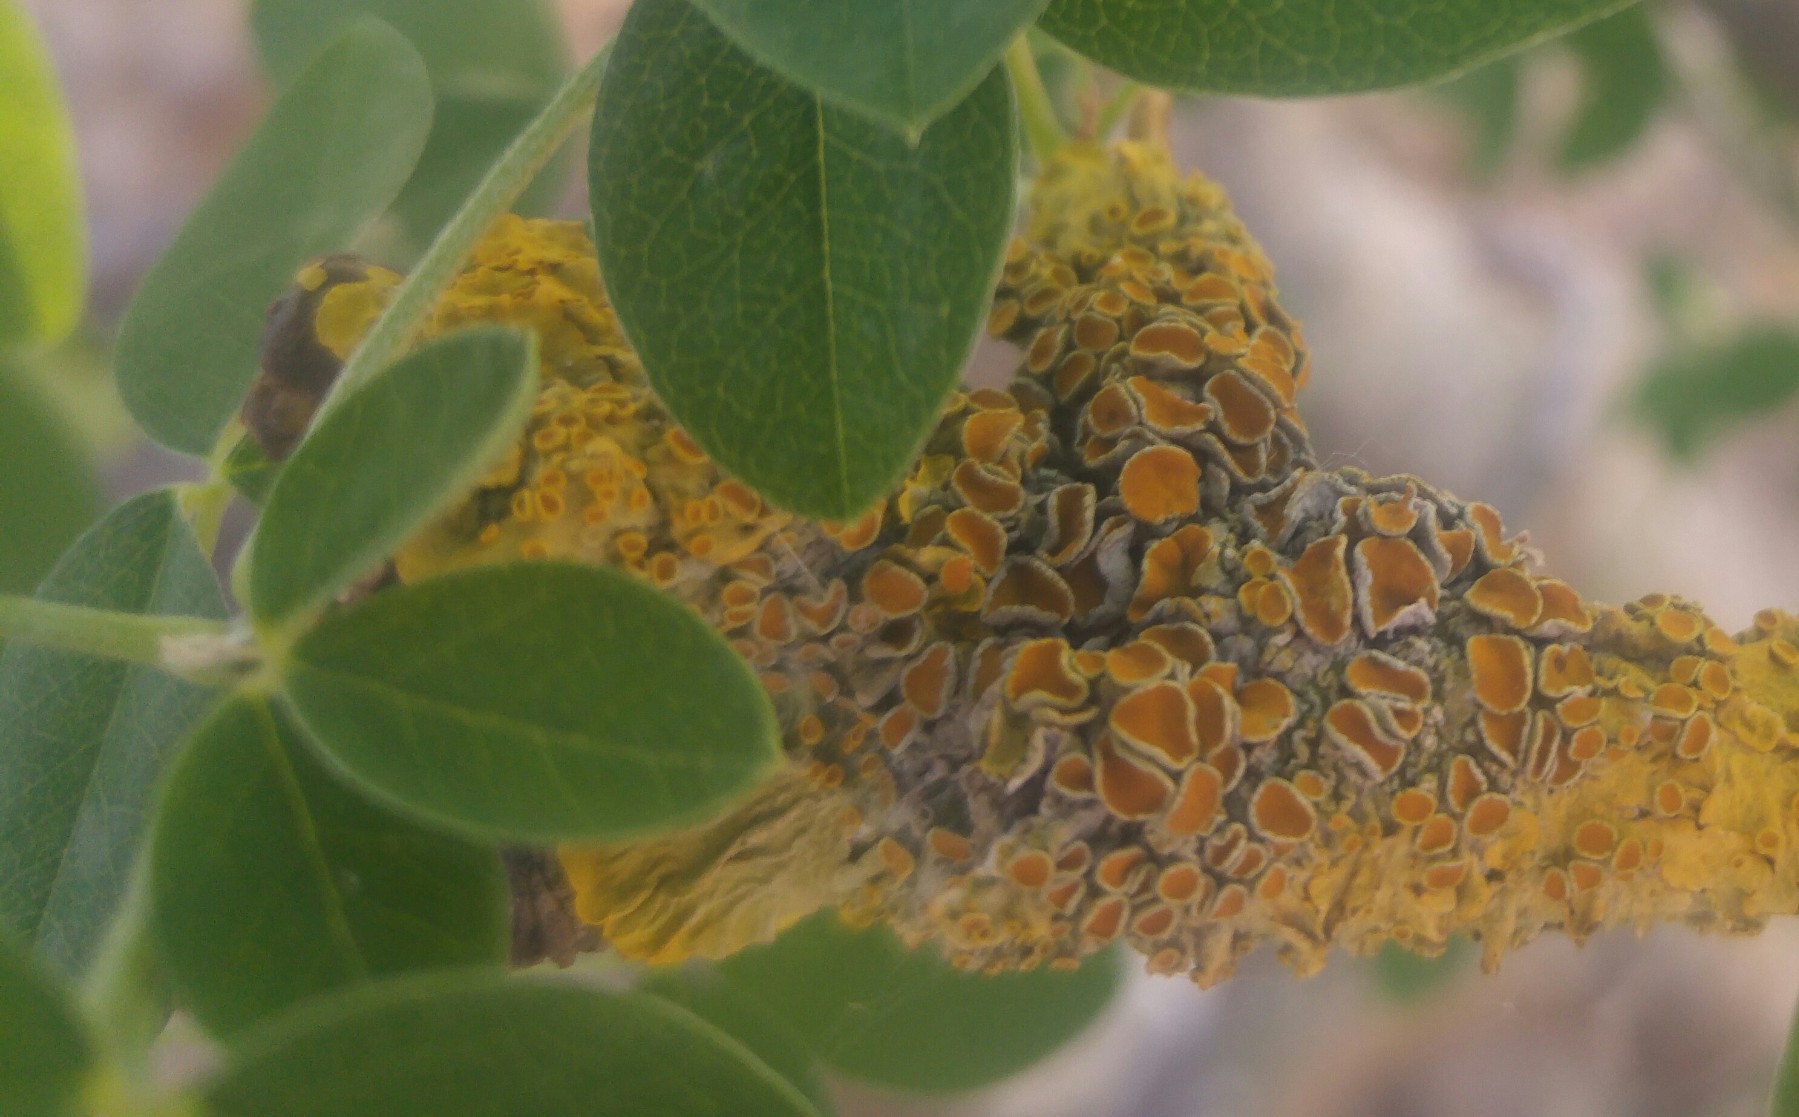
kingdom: Fungi
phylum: Ascomycota
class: Lecanoromycetes
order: Teloschistales
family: Teloschistaceae
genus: Xanthoria
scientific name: Xanthoria parietina
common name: almindelig væggelav
